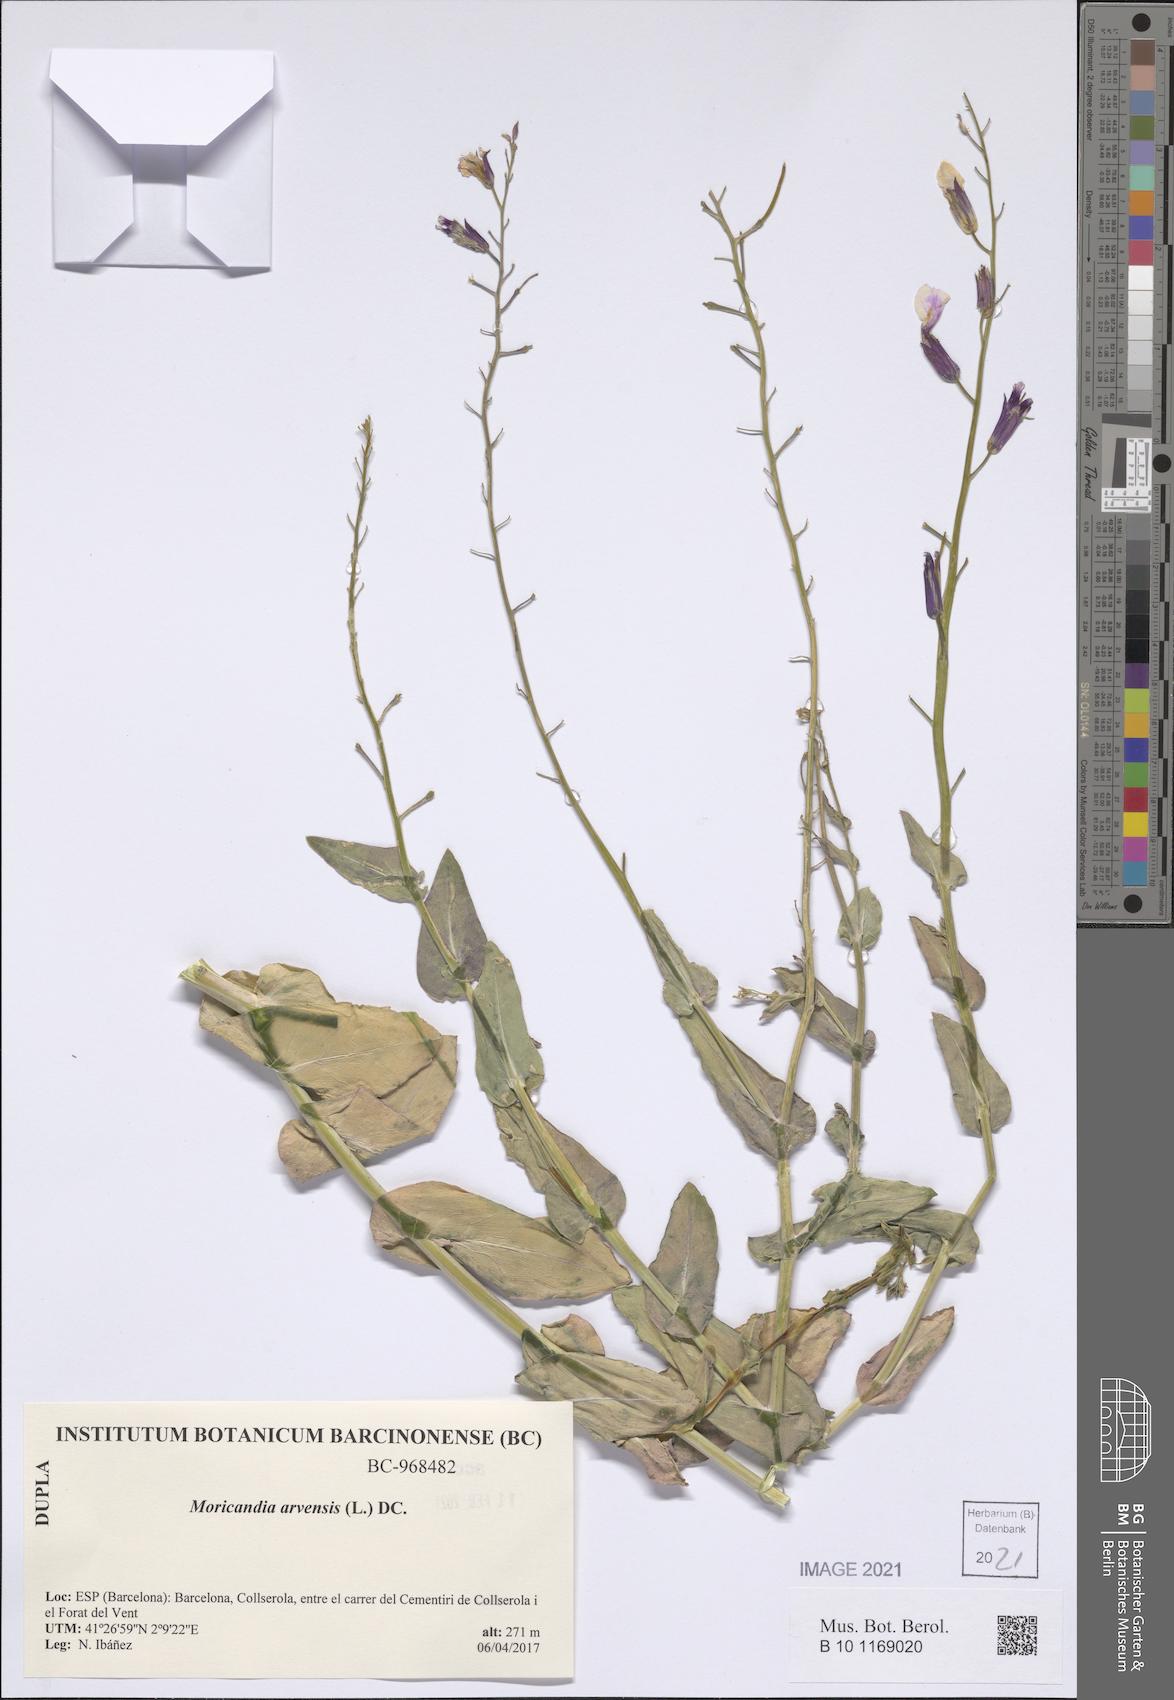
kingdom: Plantae
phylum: Tracheophyta
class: Magnoliopsida
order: Brassicales
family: Brassicaceae
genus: Moricandia
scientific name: Moricandia arvensis
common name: Purple mistress
